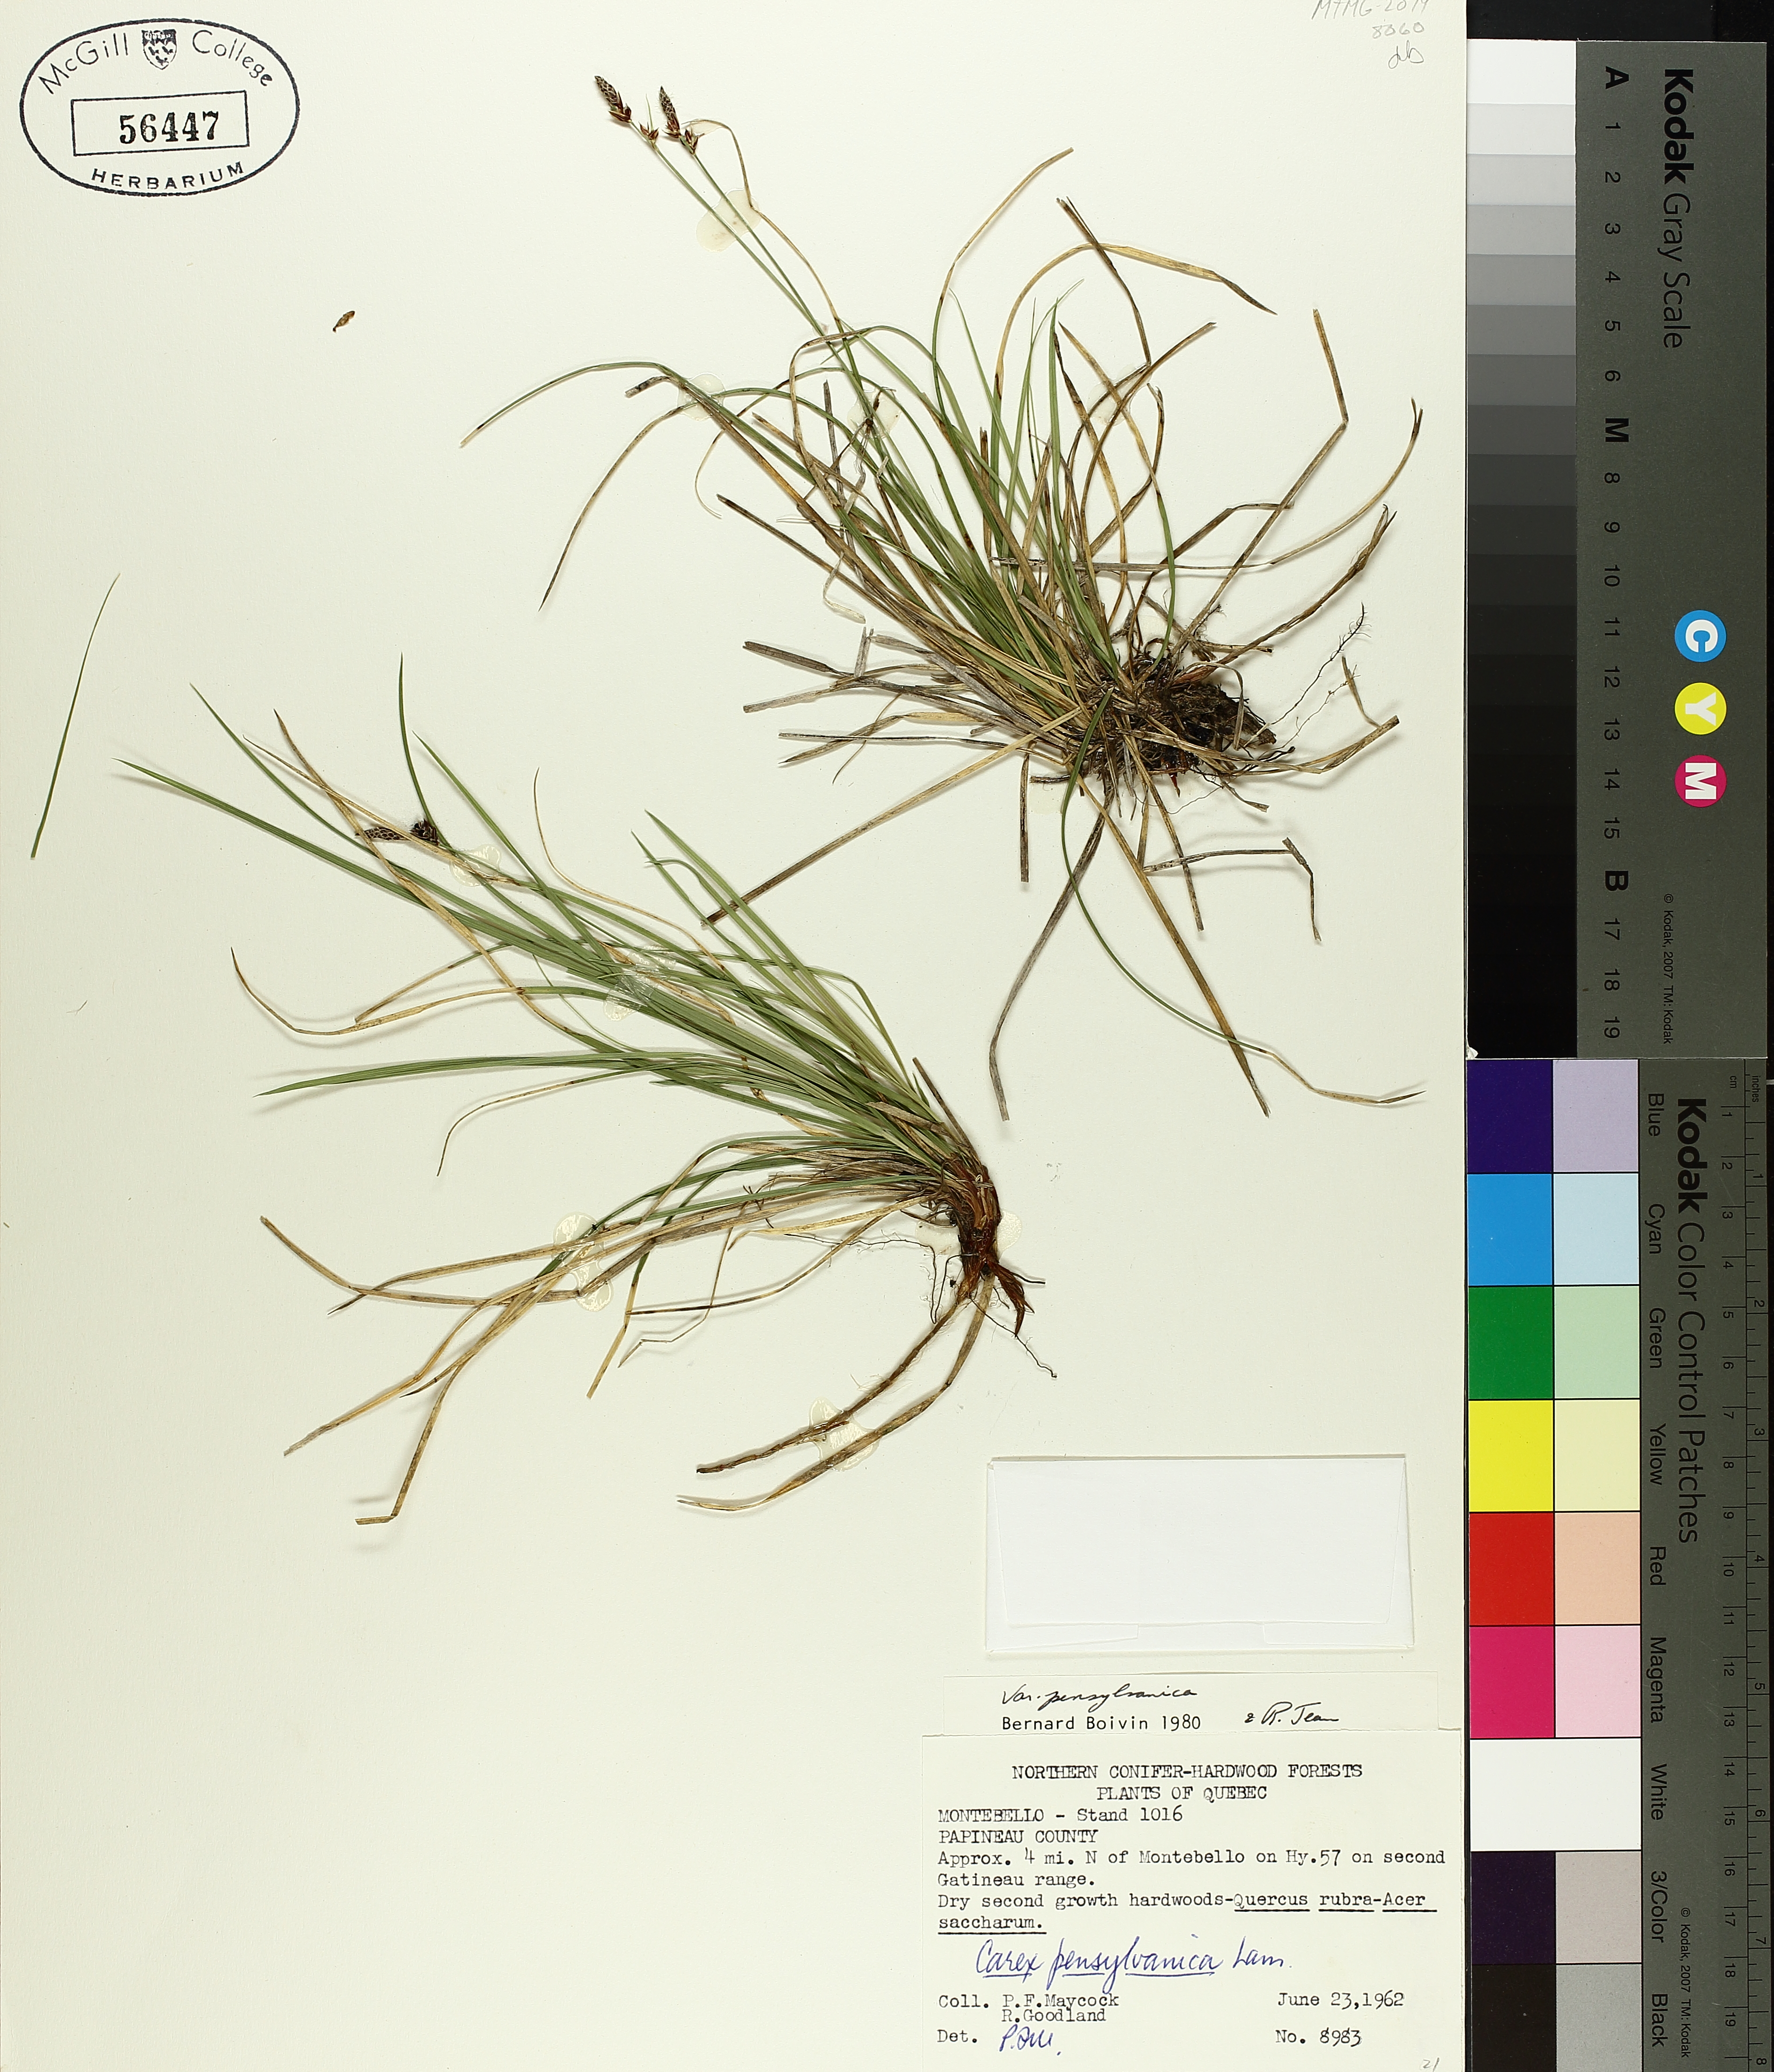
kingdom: Plantae
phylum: Tracheophyta
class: Liliopsida
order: Poales
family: Cyperaceae
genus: Carex
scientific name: Carex pensylvanica
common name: Common oak sedge
